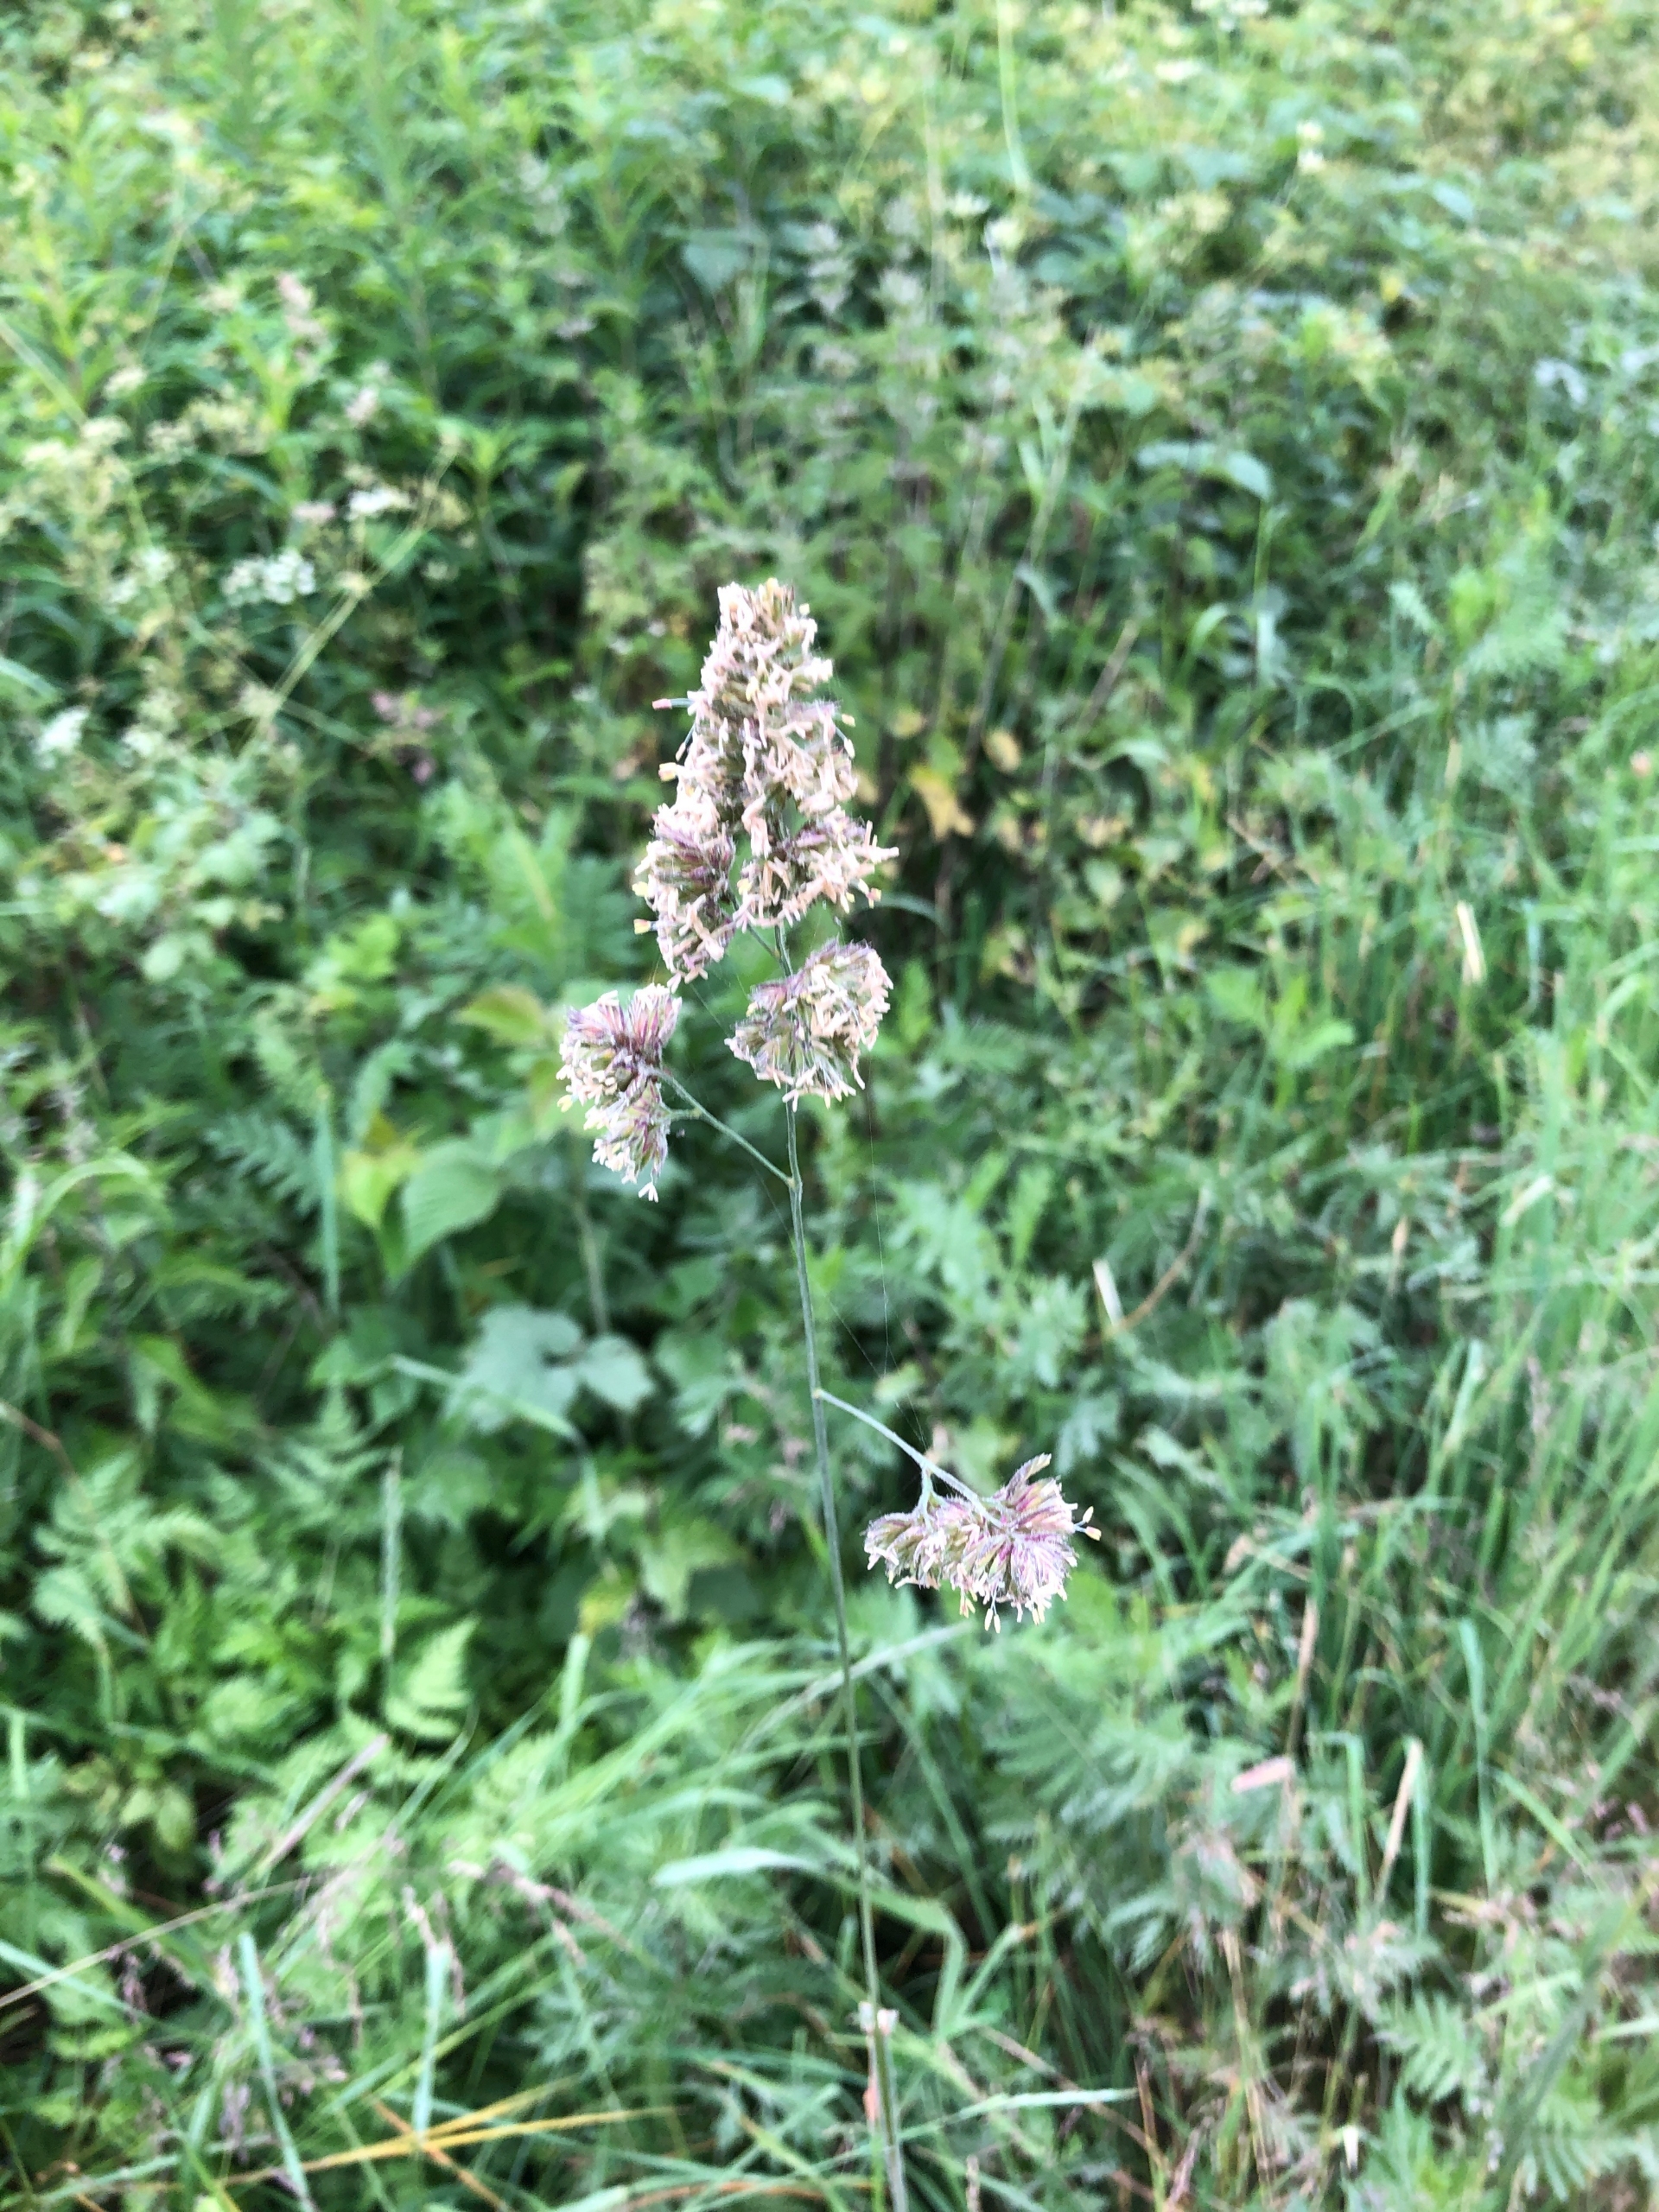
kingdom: Plantae
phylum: Tracheophyta
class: Liliopsida
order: Poales
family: Poaceae
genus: Dactylis
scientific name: Dactylis glomerata
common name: Almindelig hundegræs
